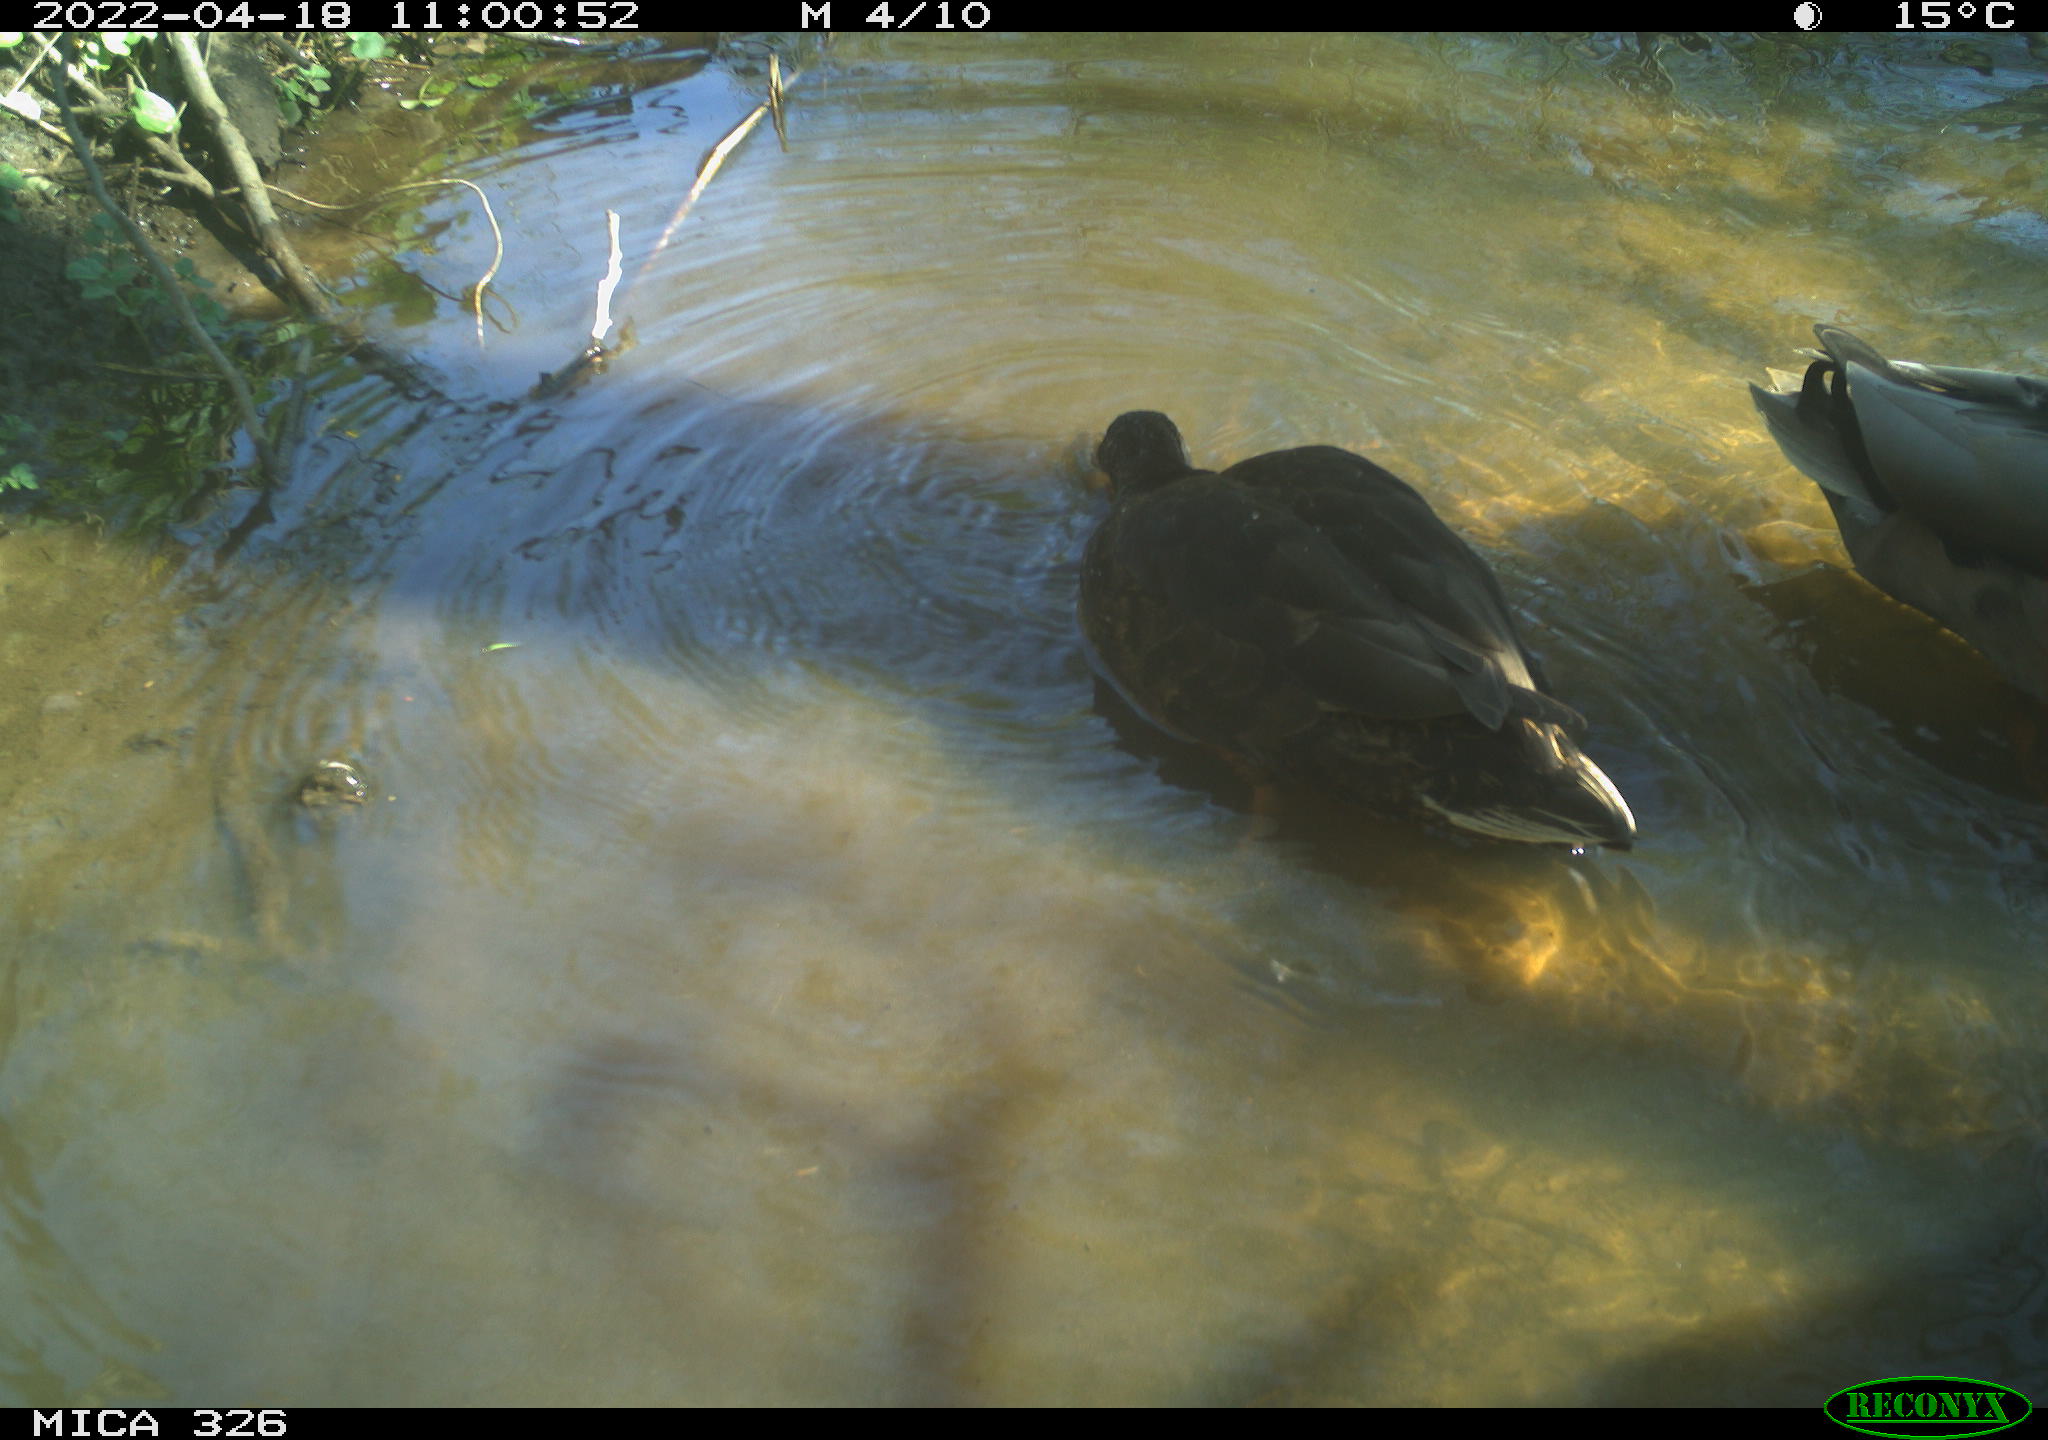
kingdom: Animalia
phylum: Chordata
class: Aves
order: Anseriformes
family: Anatidae
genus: Anas
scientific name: Anas
